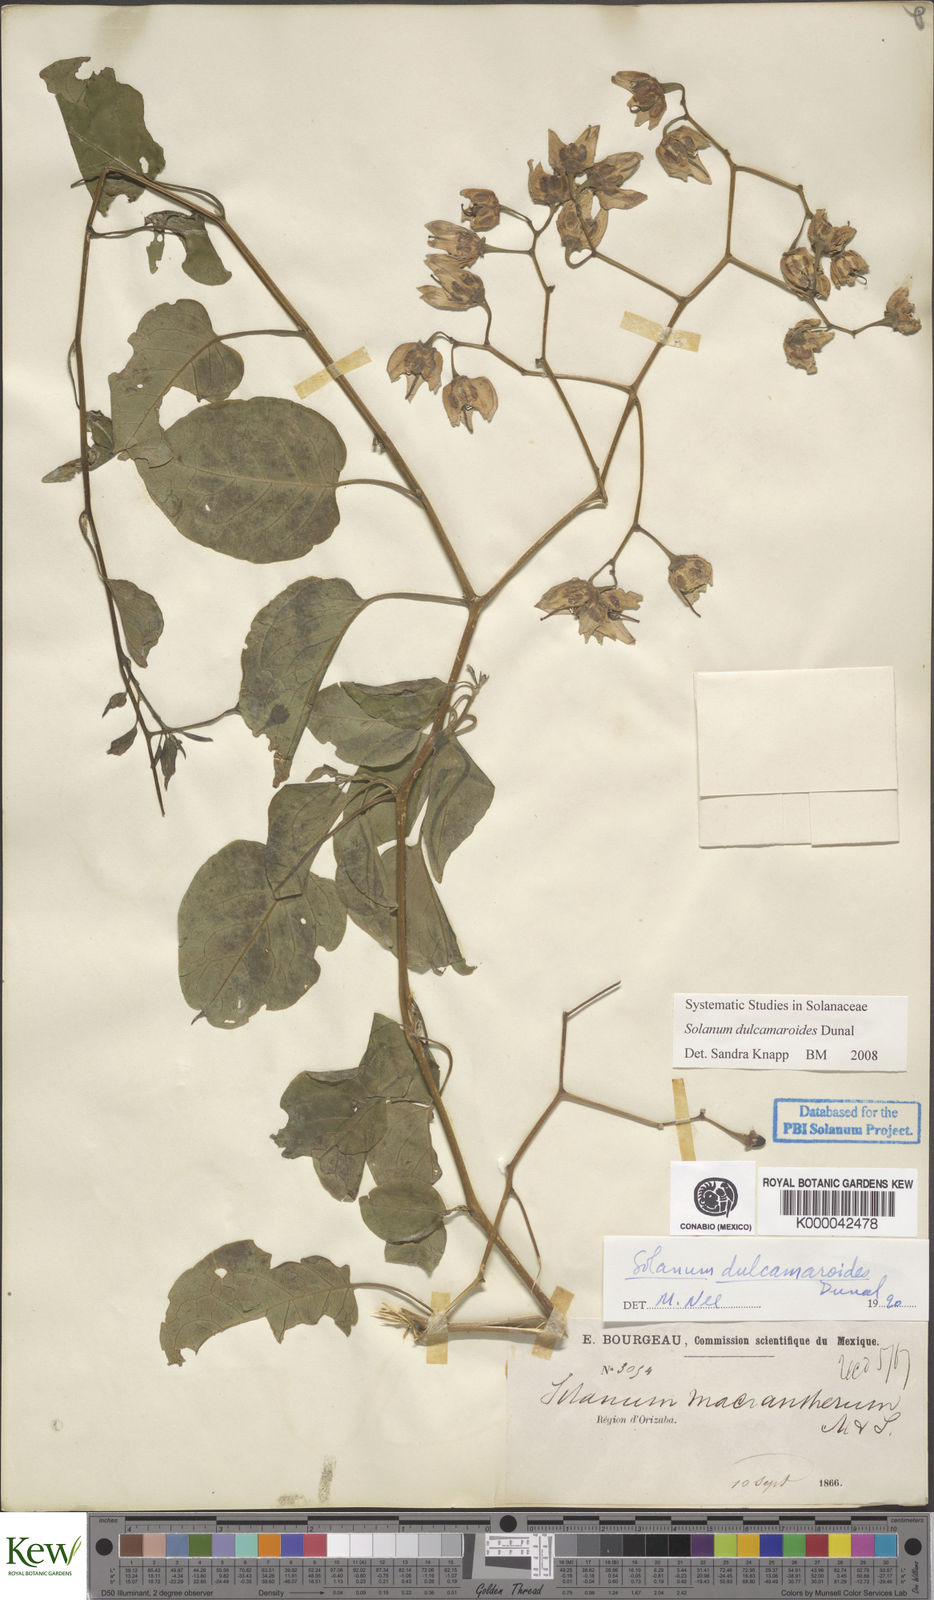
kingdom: Plantae
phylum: Tracheophyta
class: Magnoliopsida
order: Solanales
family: Solanaceae
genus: Solanum
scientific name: Solanum dulcamaroides
